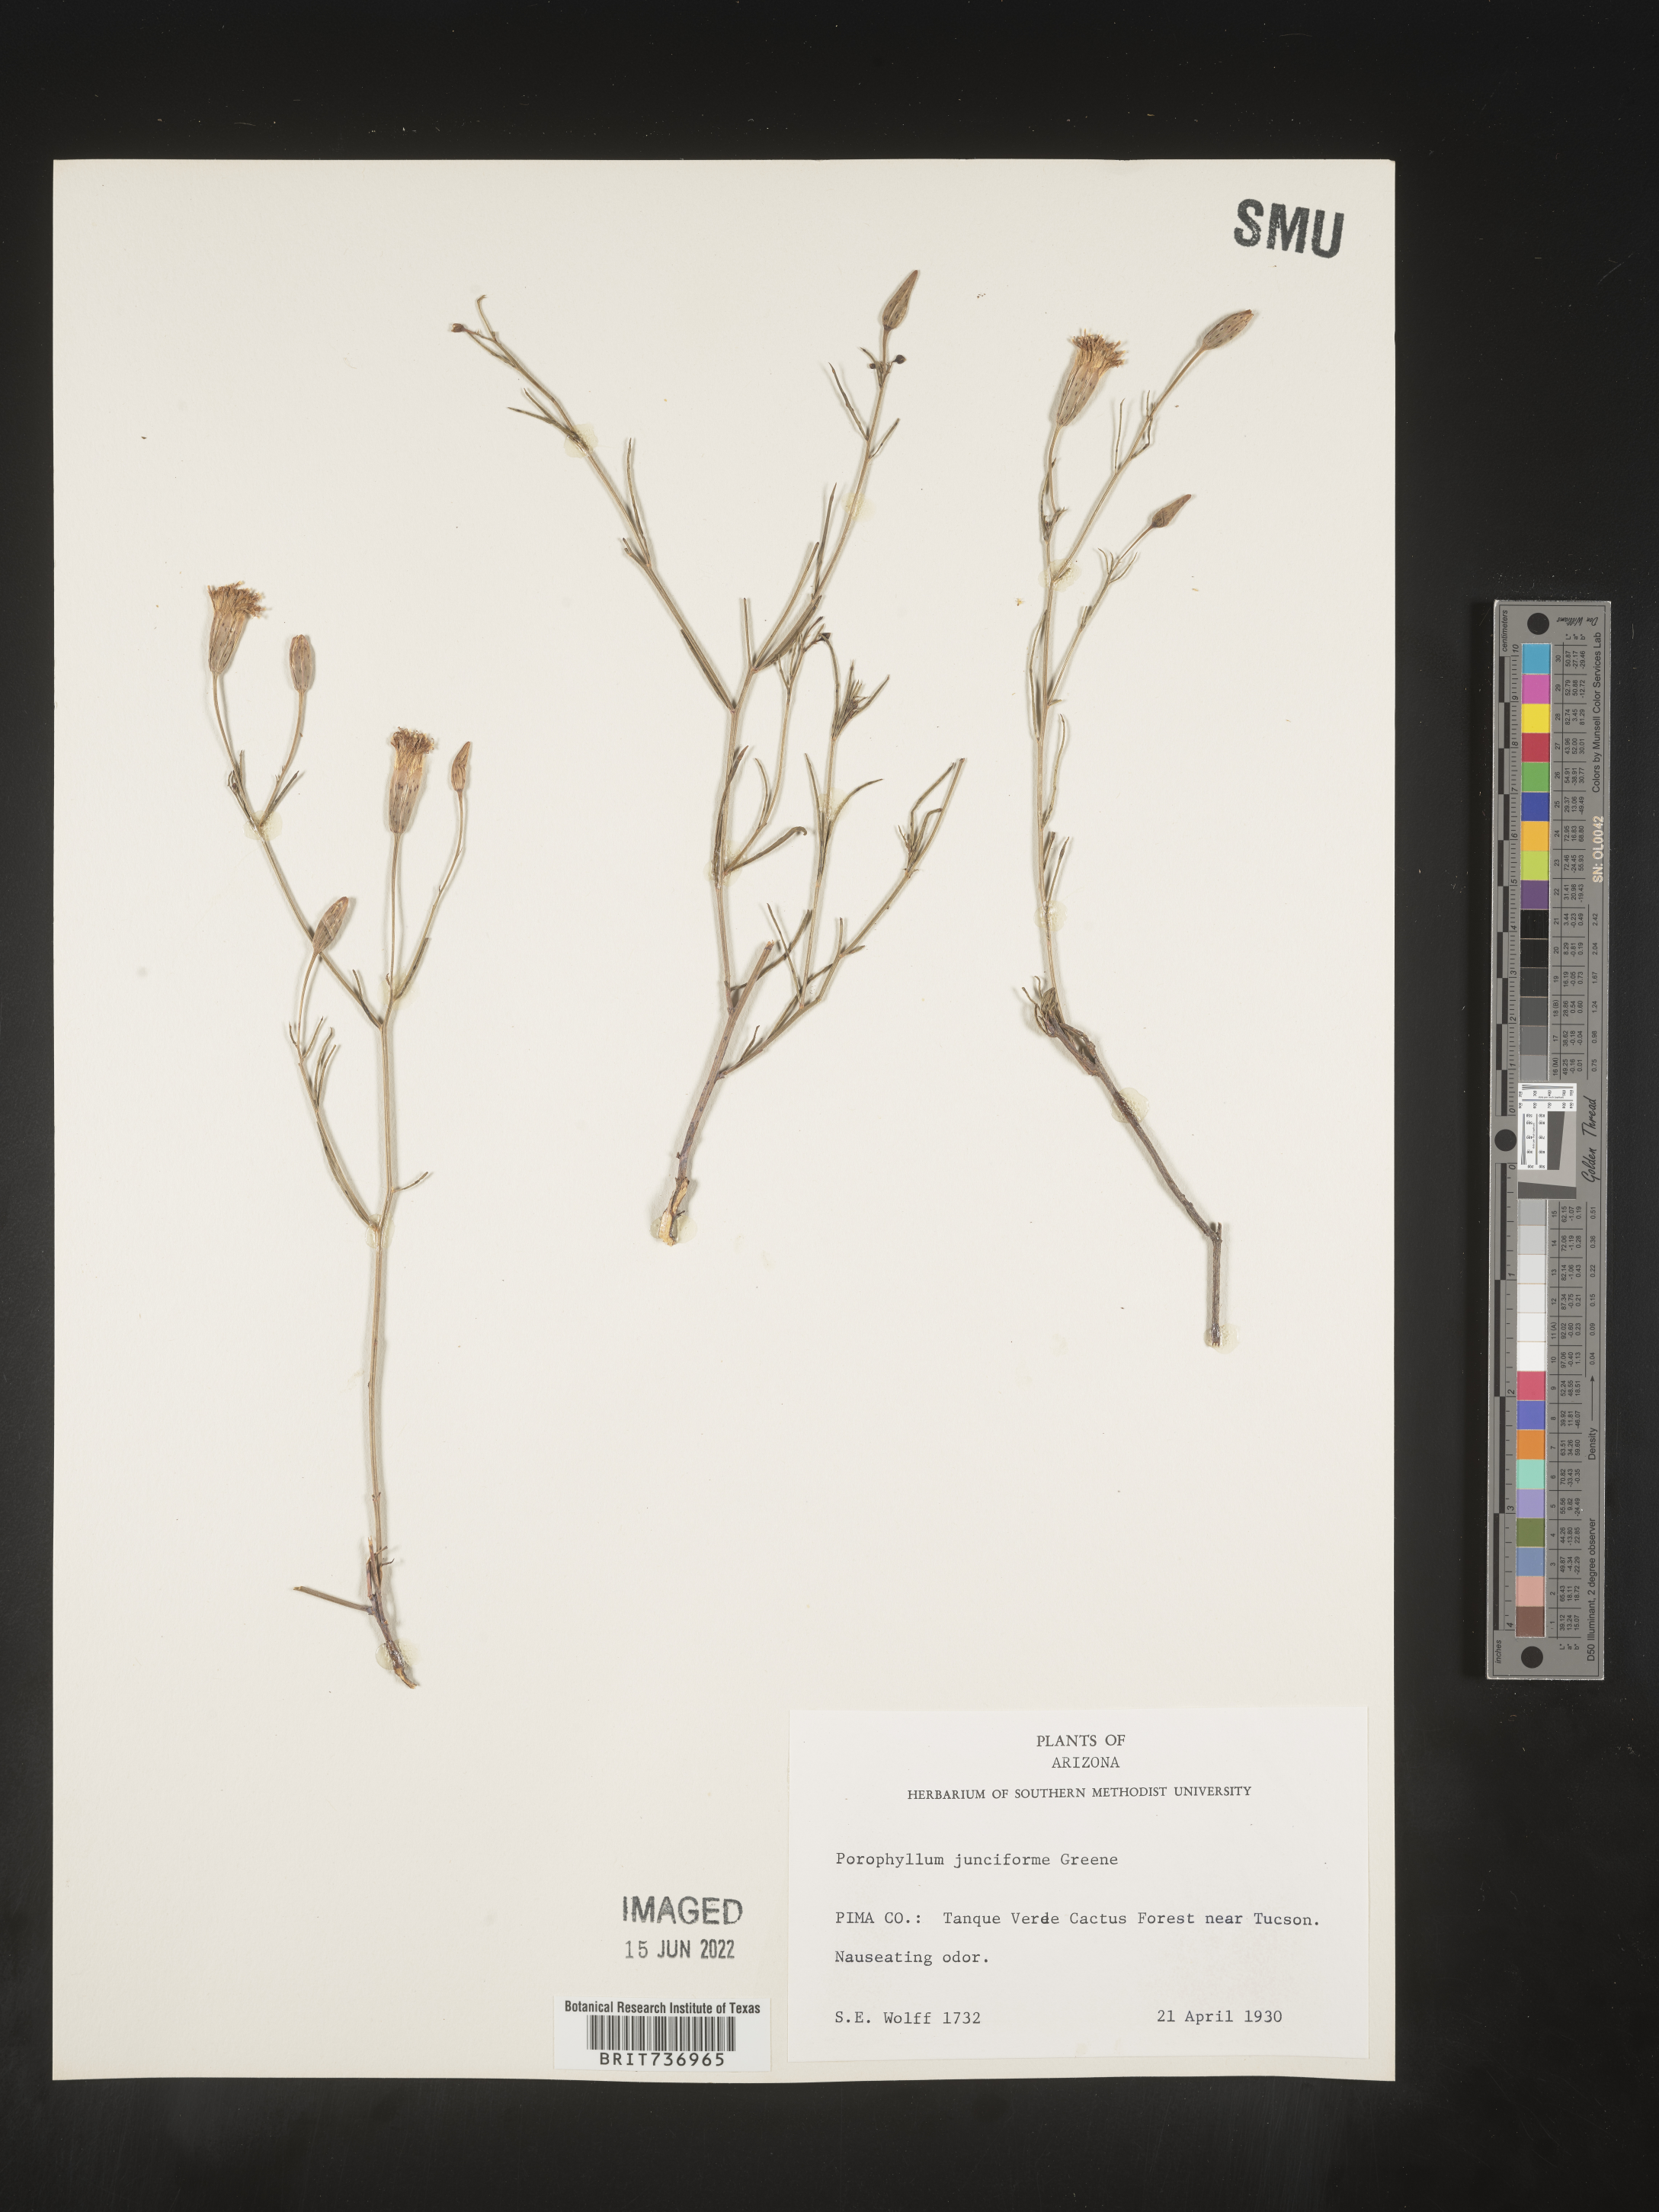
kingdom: Plantae
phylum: Tracheophyta
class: Magnoliopsida
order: Asterales
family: Asteraceae
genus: Porophyllum
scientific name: Porophyllum
